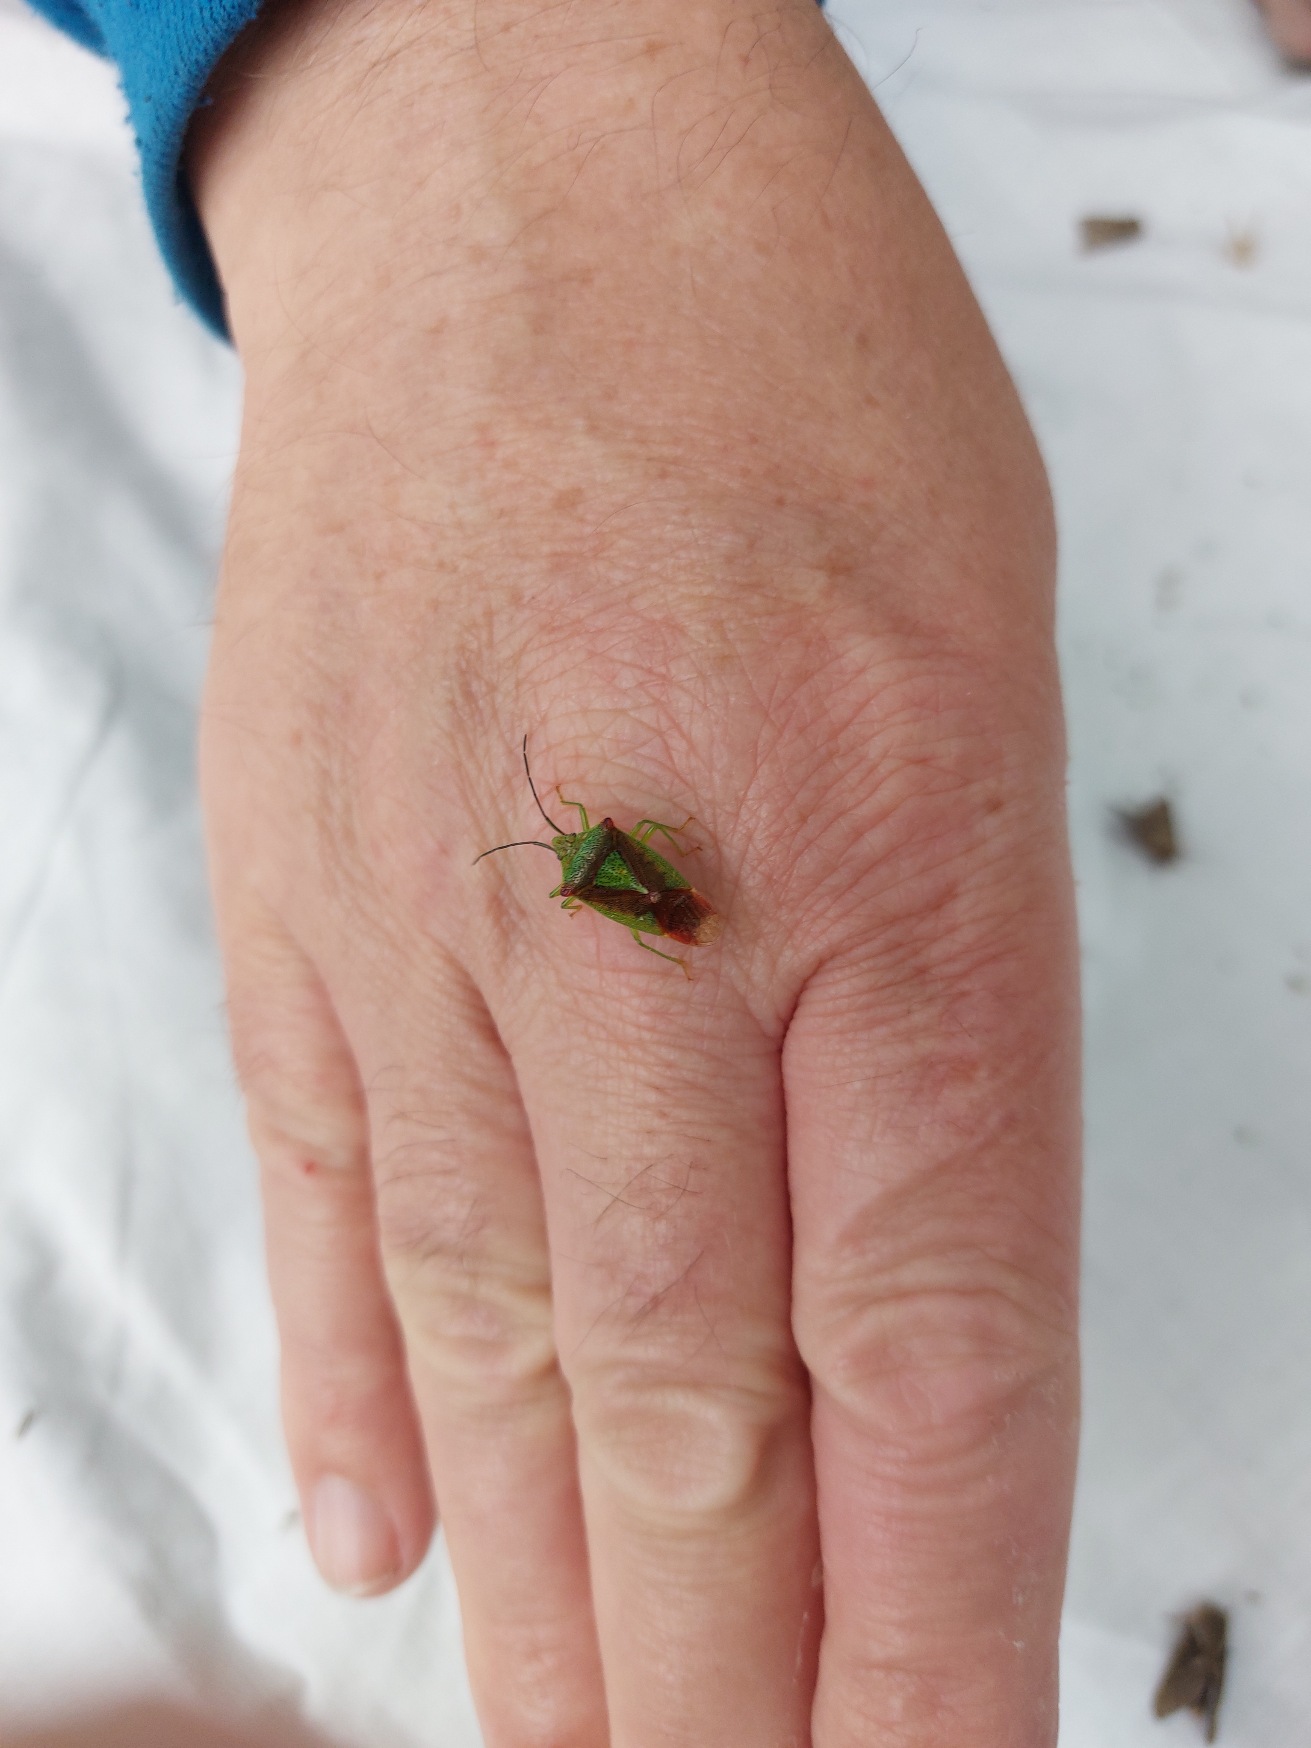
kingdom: Animalia
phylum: Arthropoda
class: Insecta
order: Hemiptera
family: Acanthosomatidae
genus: Acanthosoma
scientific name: Acanthosoma haemorrhoidale
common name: Stor løvtæge
